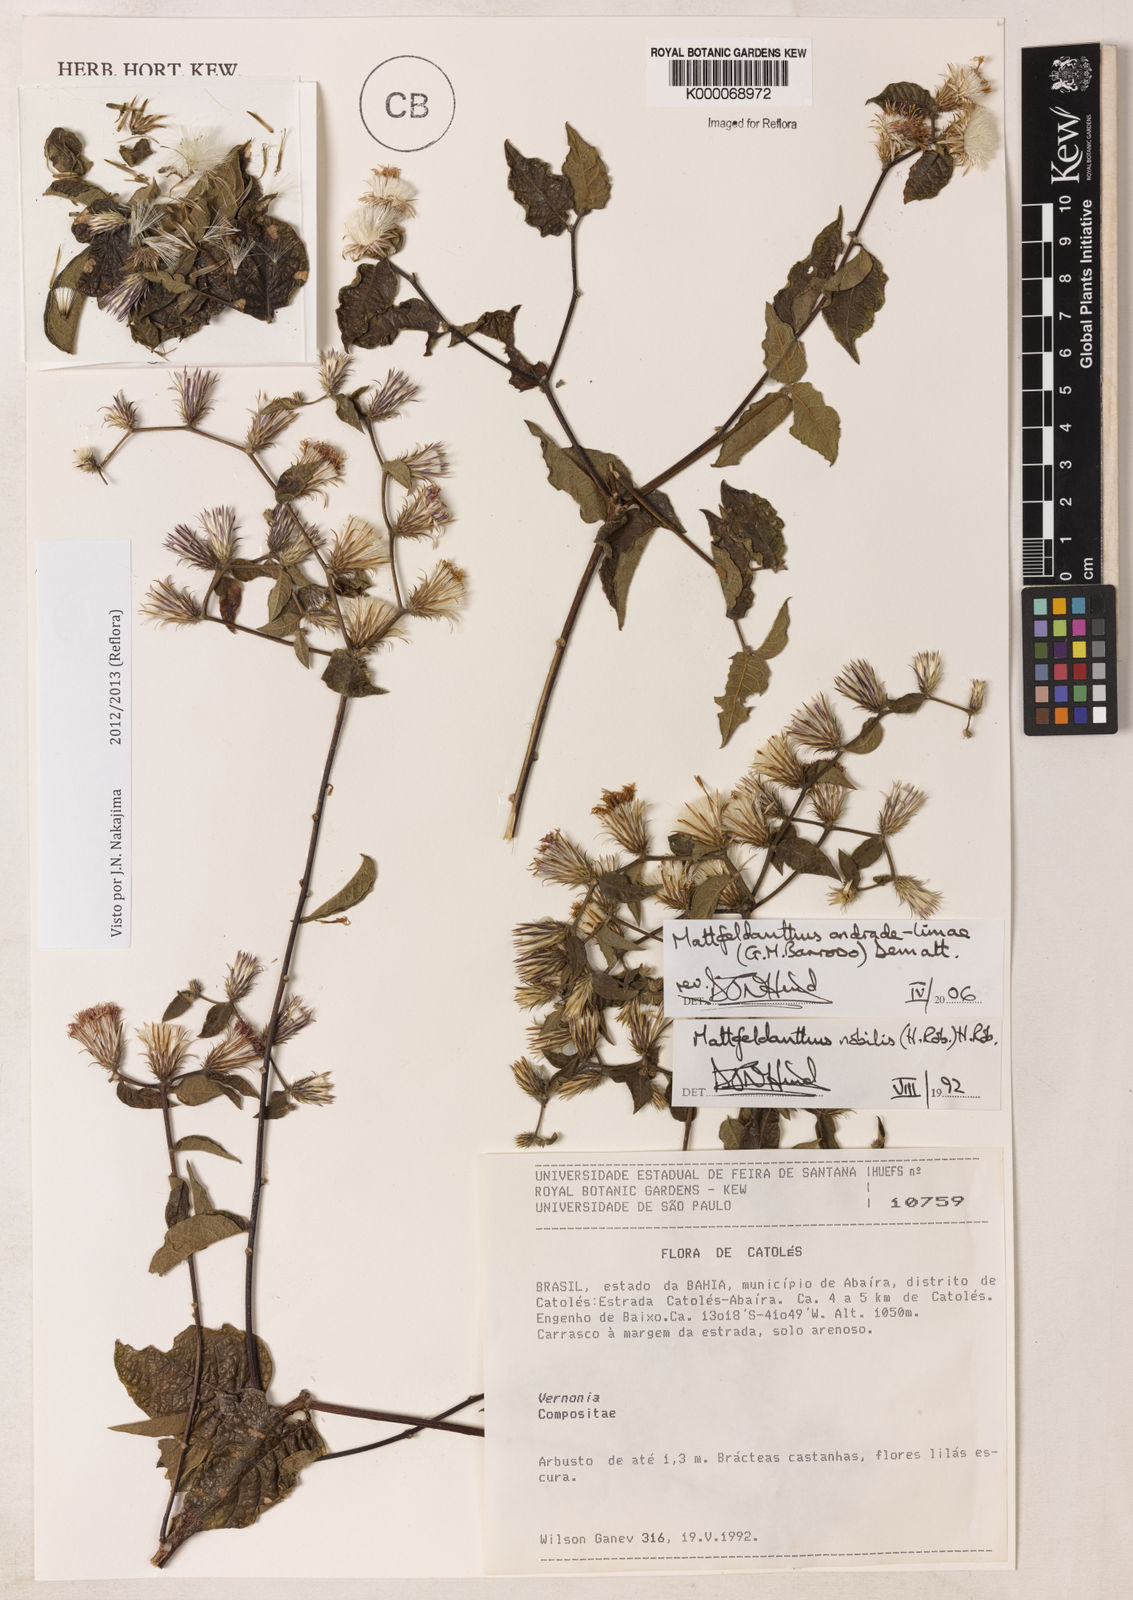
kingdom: Plantae
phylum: Tracheophyta
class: Magnoliopsida
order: Asterales
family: Asteraceae
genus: Mattfeldanthus
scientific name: Mattfeldanthus
